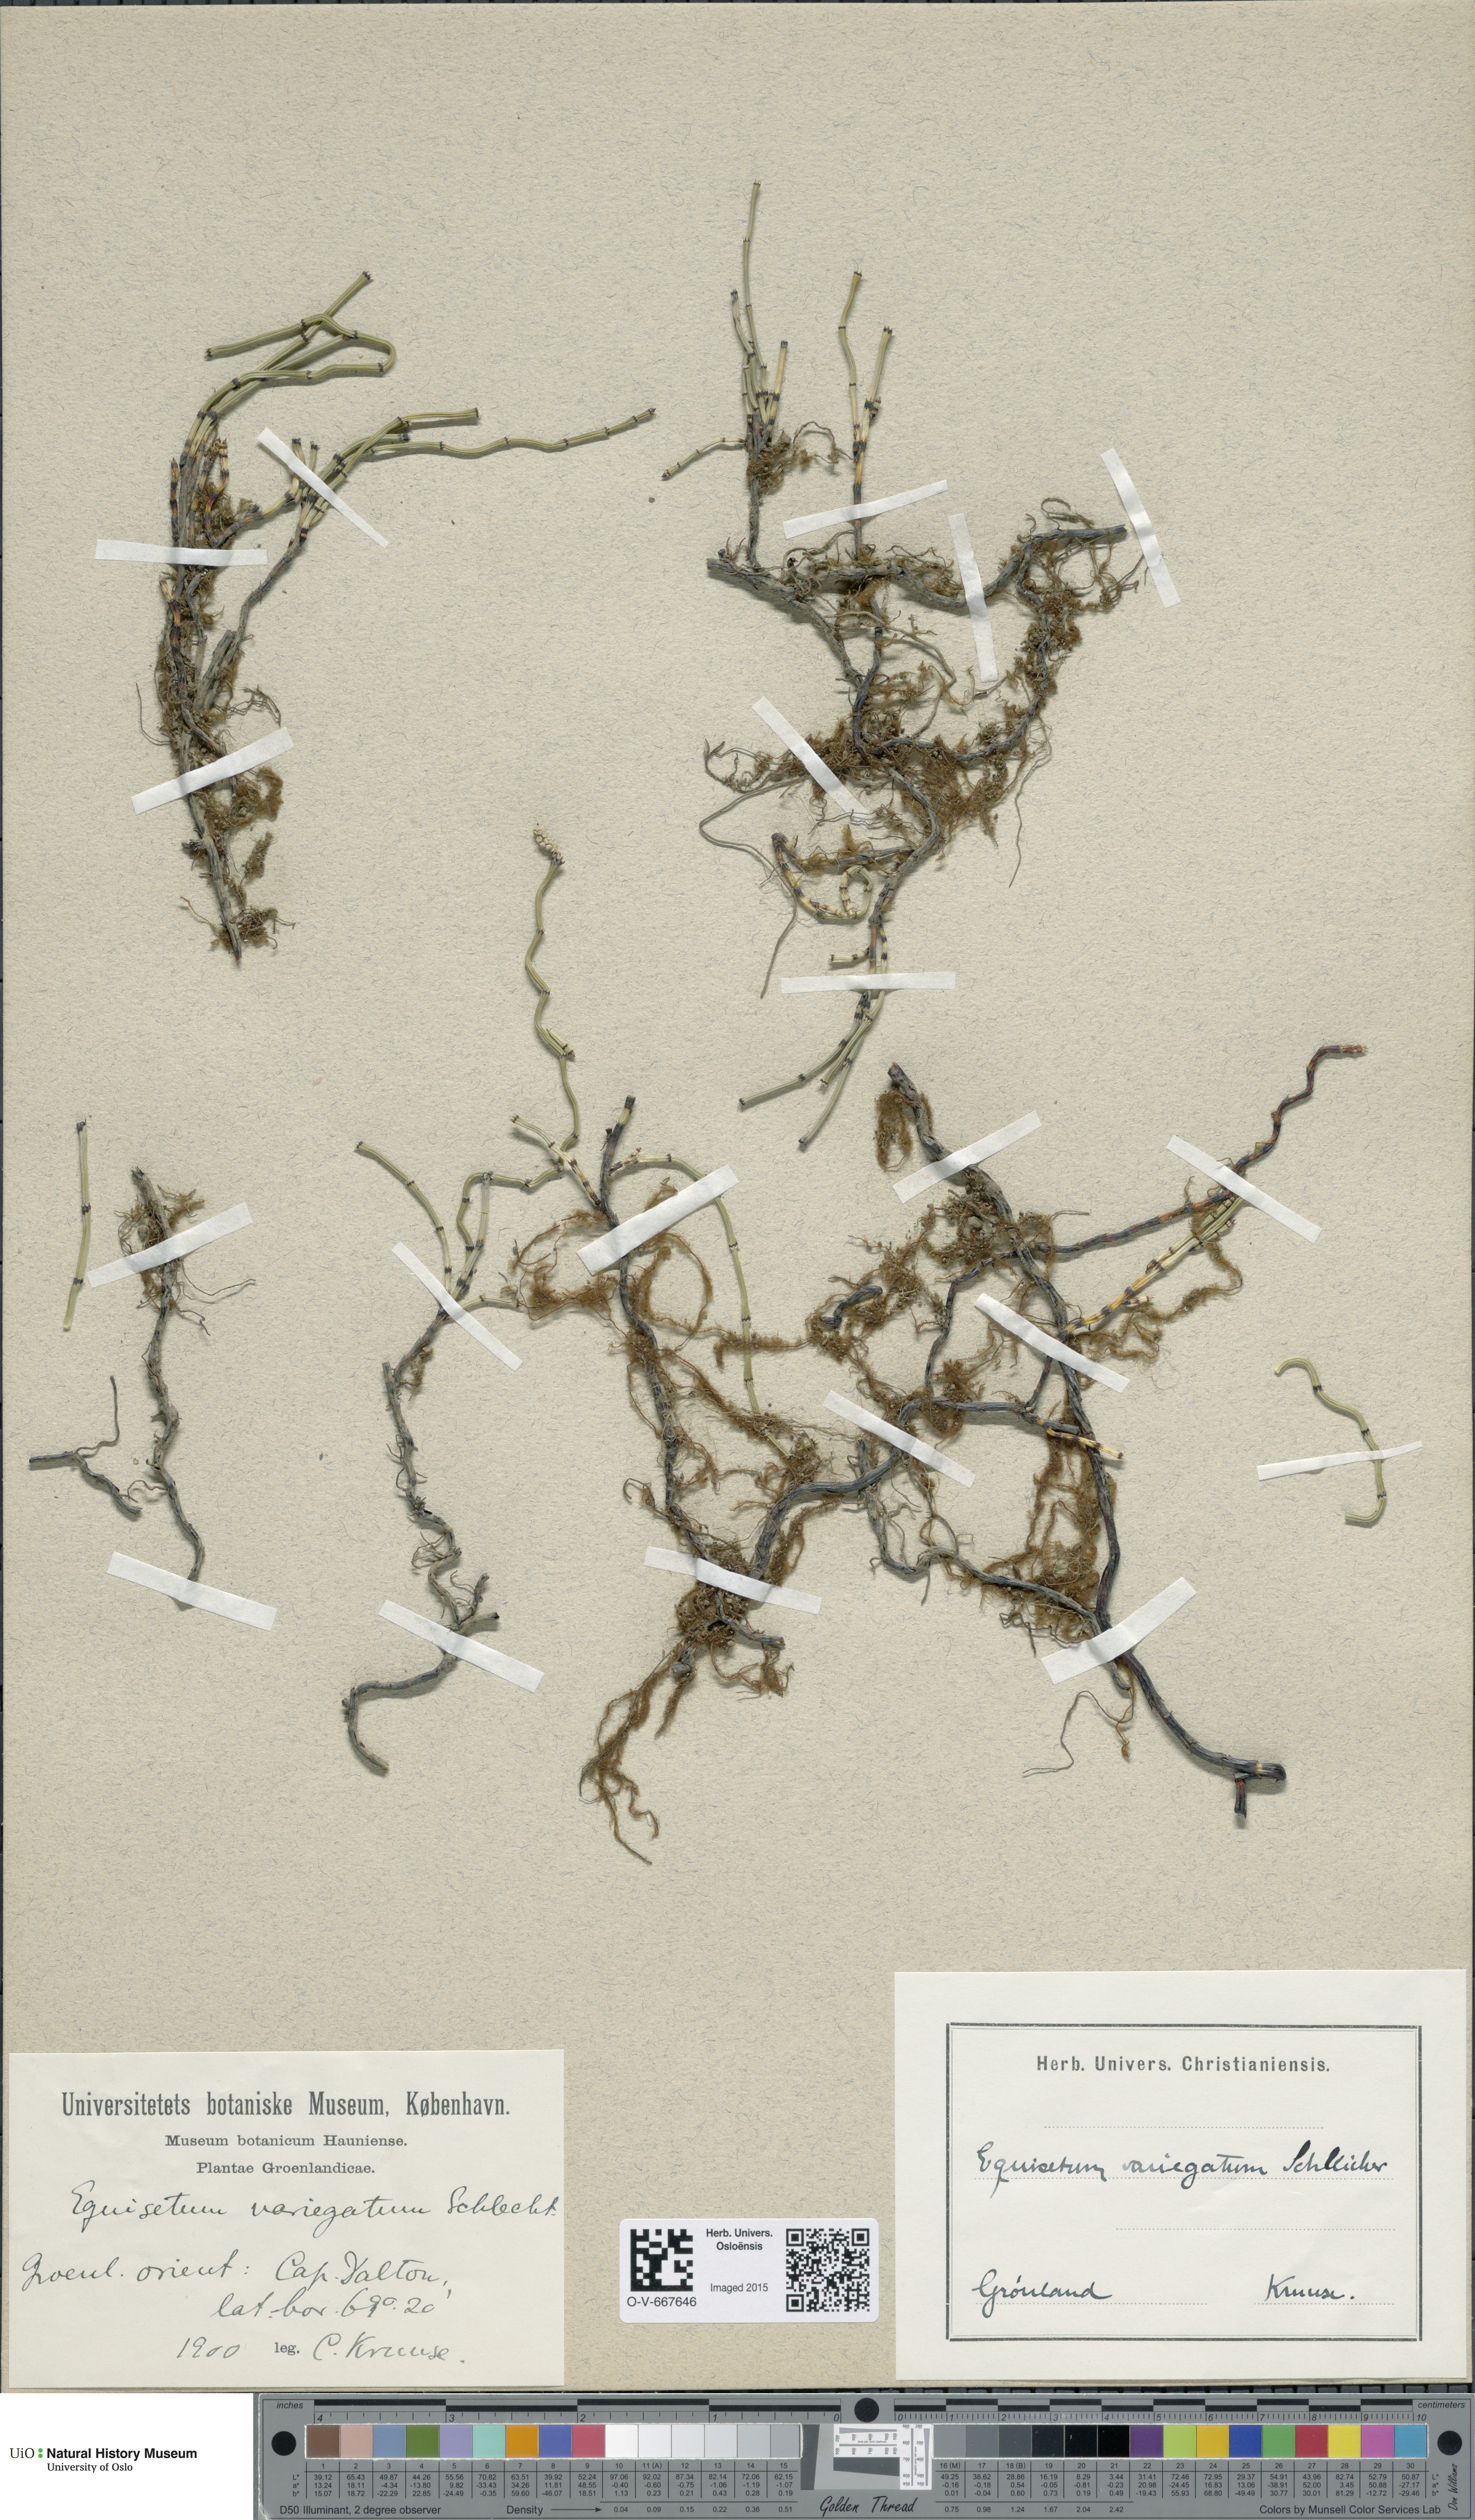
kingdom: Plantae
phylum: Tracheophyta
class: Polypodiopsida
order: Equisetales
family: Equisetaceae
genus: Equisetum
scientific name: Equisetum variegatum
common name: Variegated horsetail
